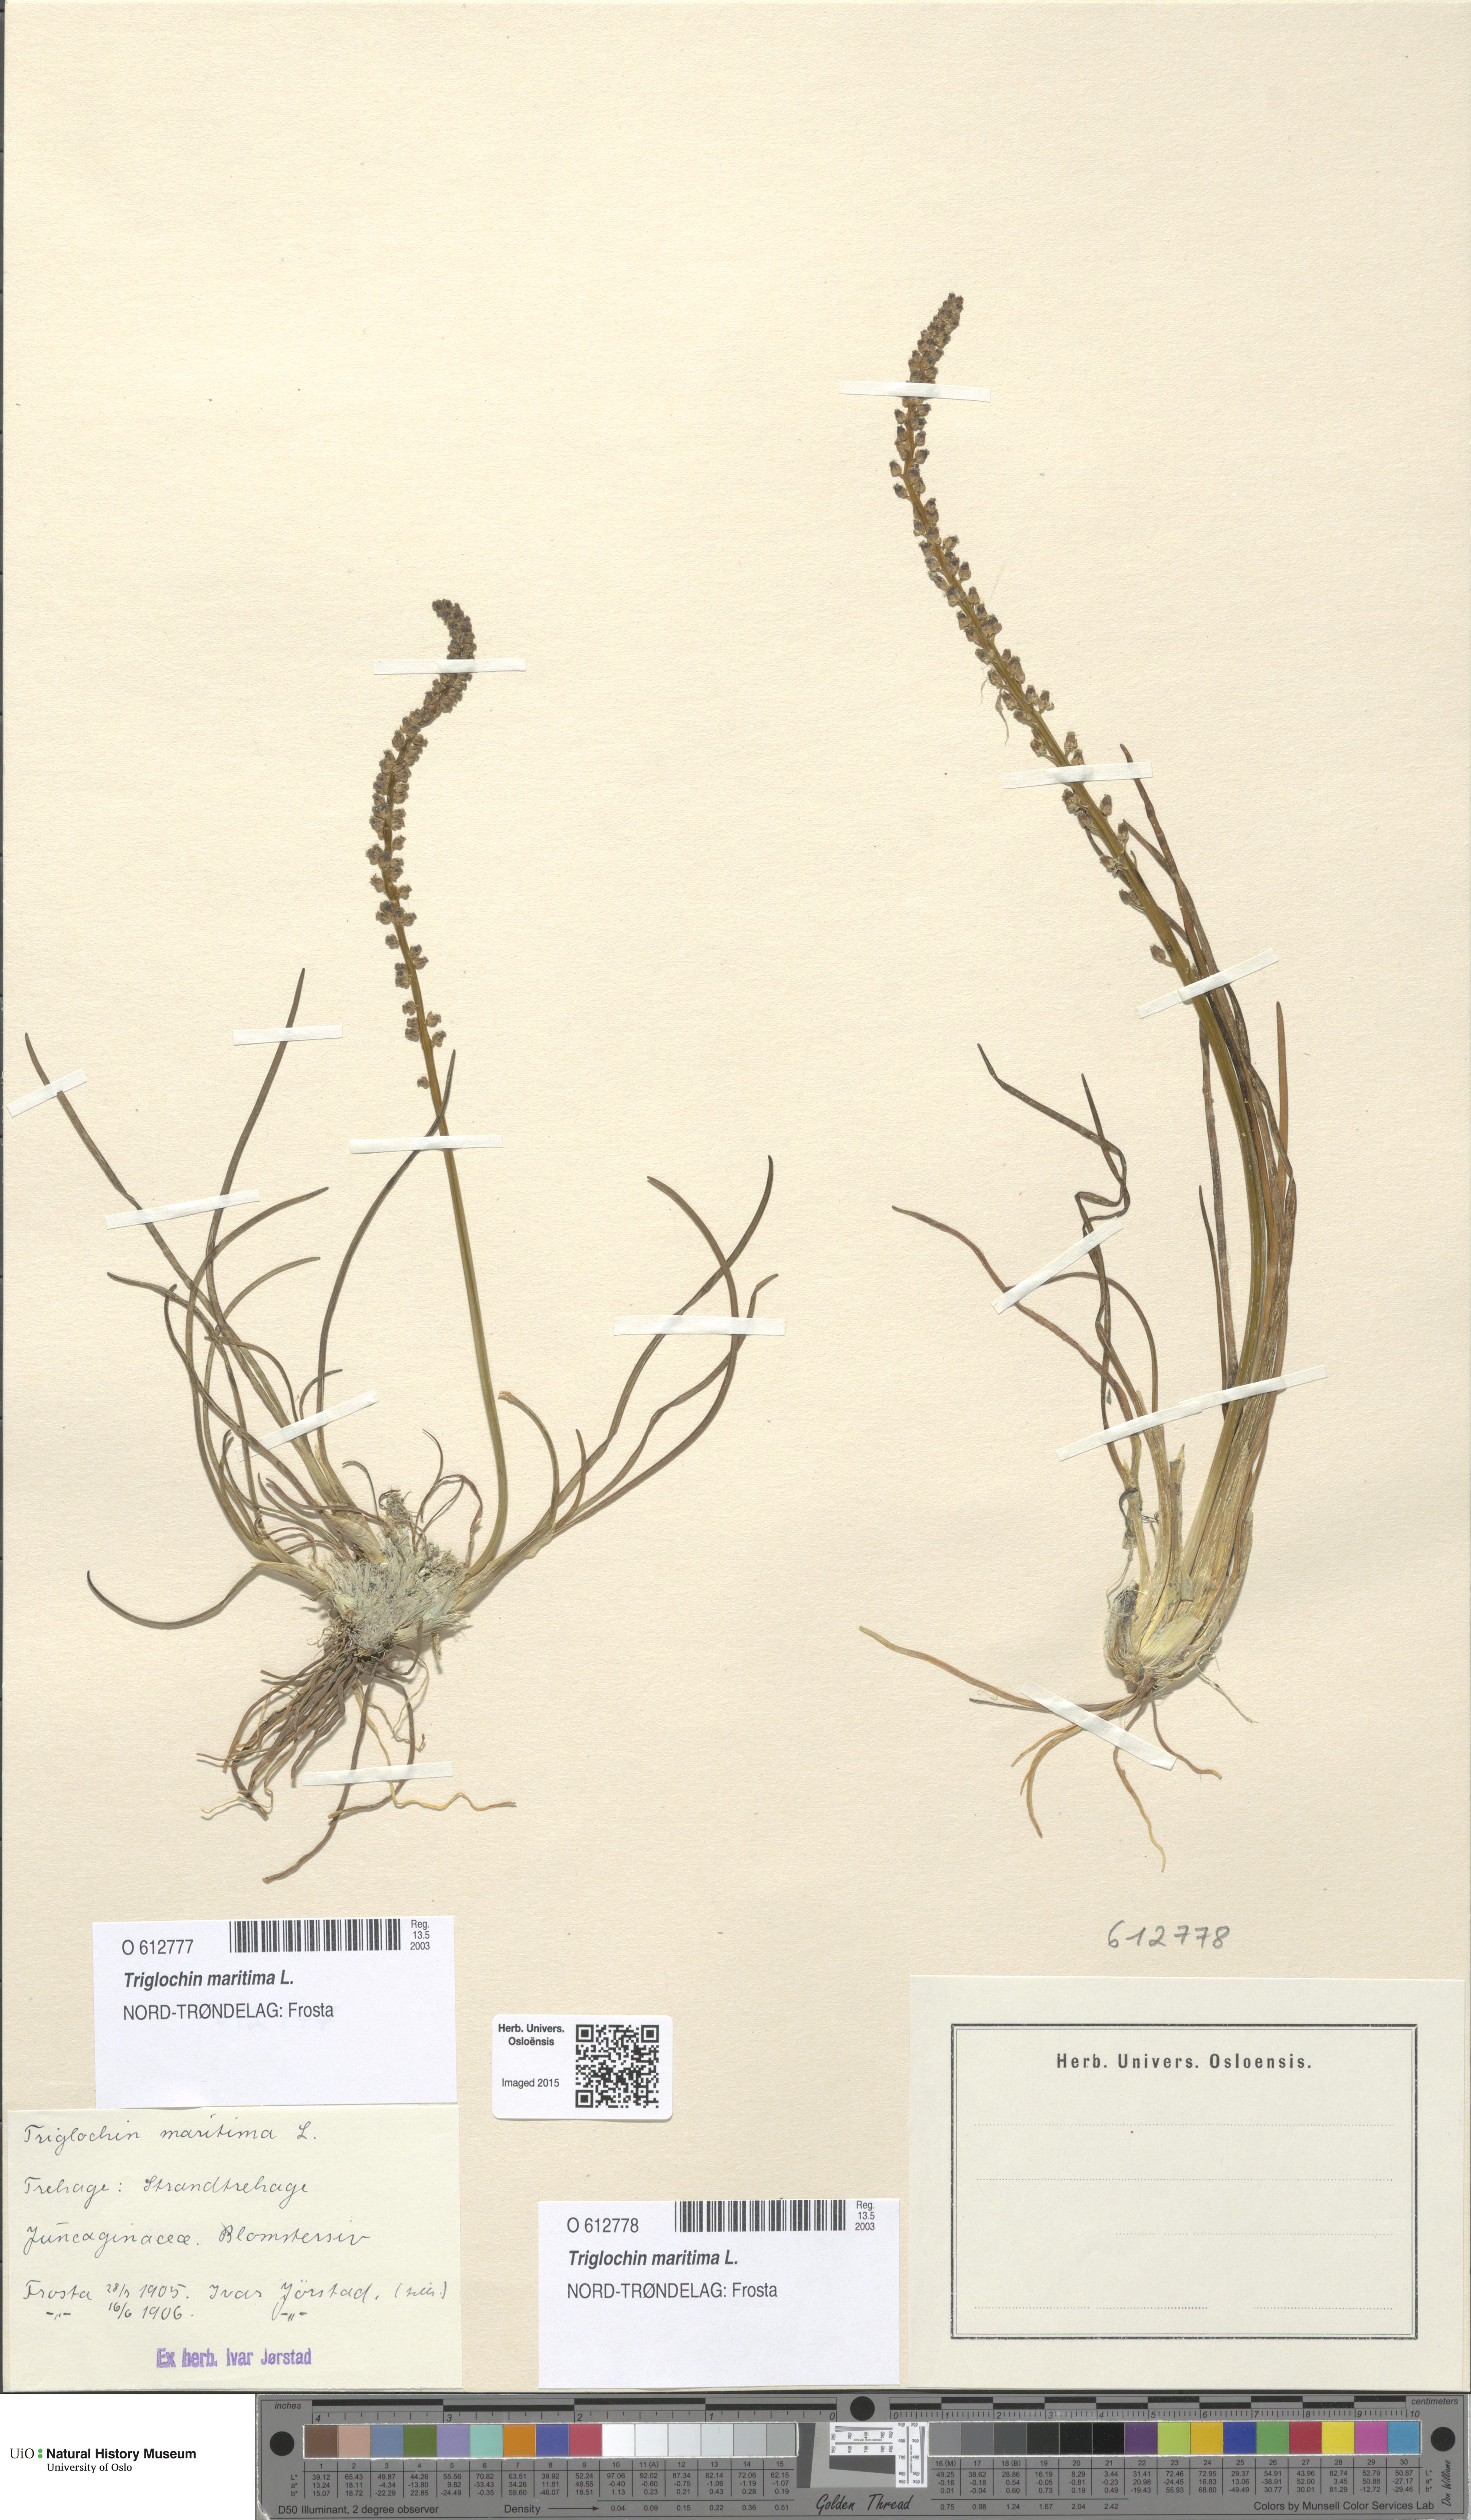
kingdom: Plantae
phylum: Tracheophyta
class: Liliopsida
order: Alismatales
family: Juncaginaceae
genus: Triglochin
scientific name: Triglochin maritima
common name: Sea arrowgrass
